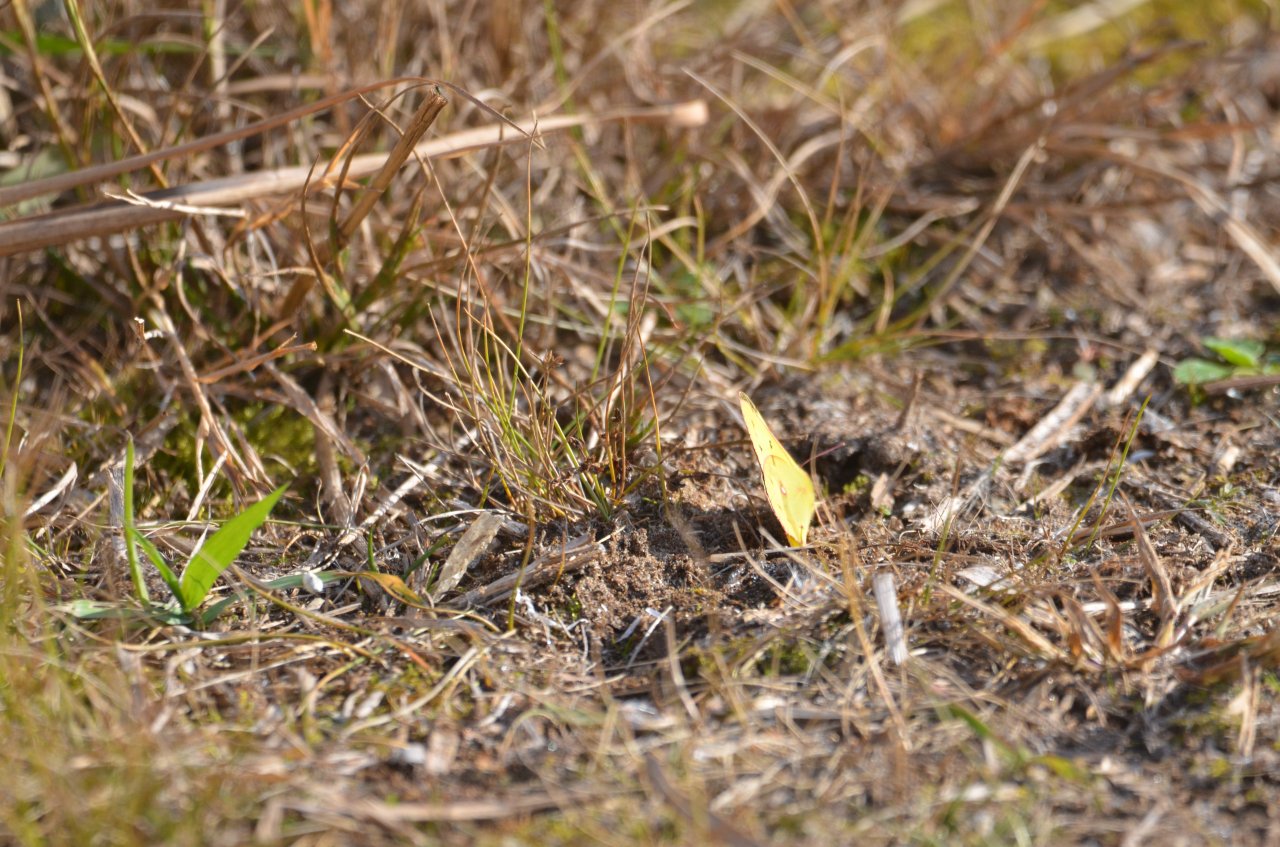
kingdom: Animalia
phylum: Arthropoda
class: Insecta
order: Lepidoptera
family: Pieridae
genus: Colias
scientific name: Colias eurytheme
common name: Orange Sulphur
